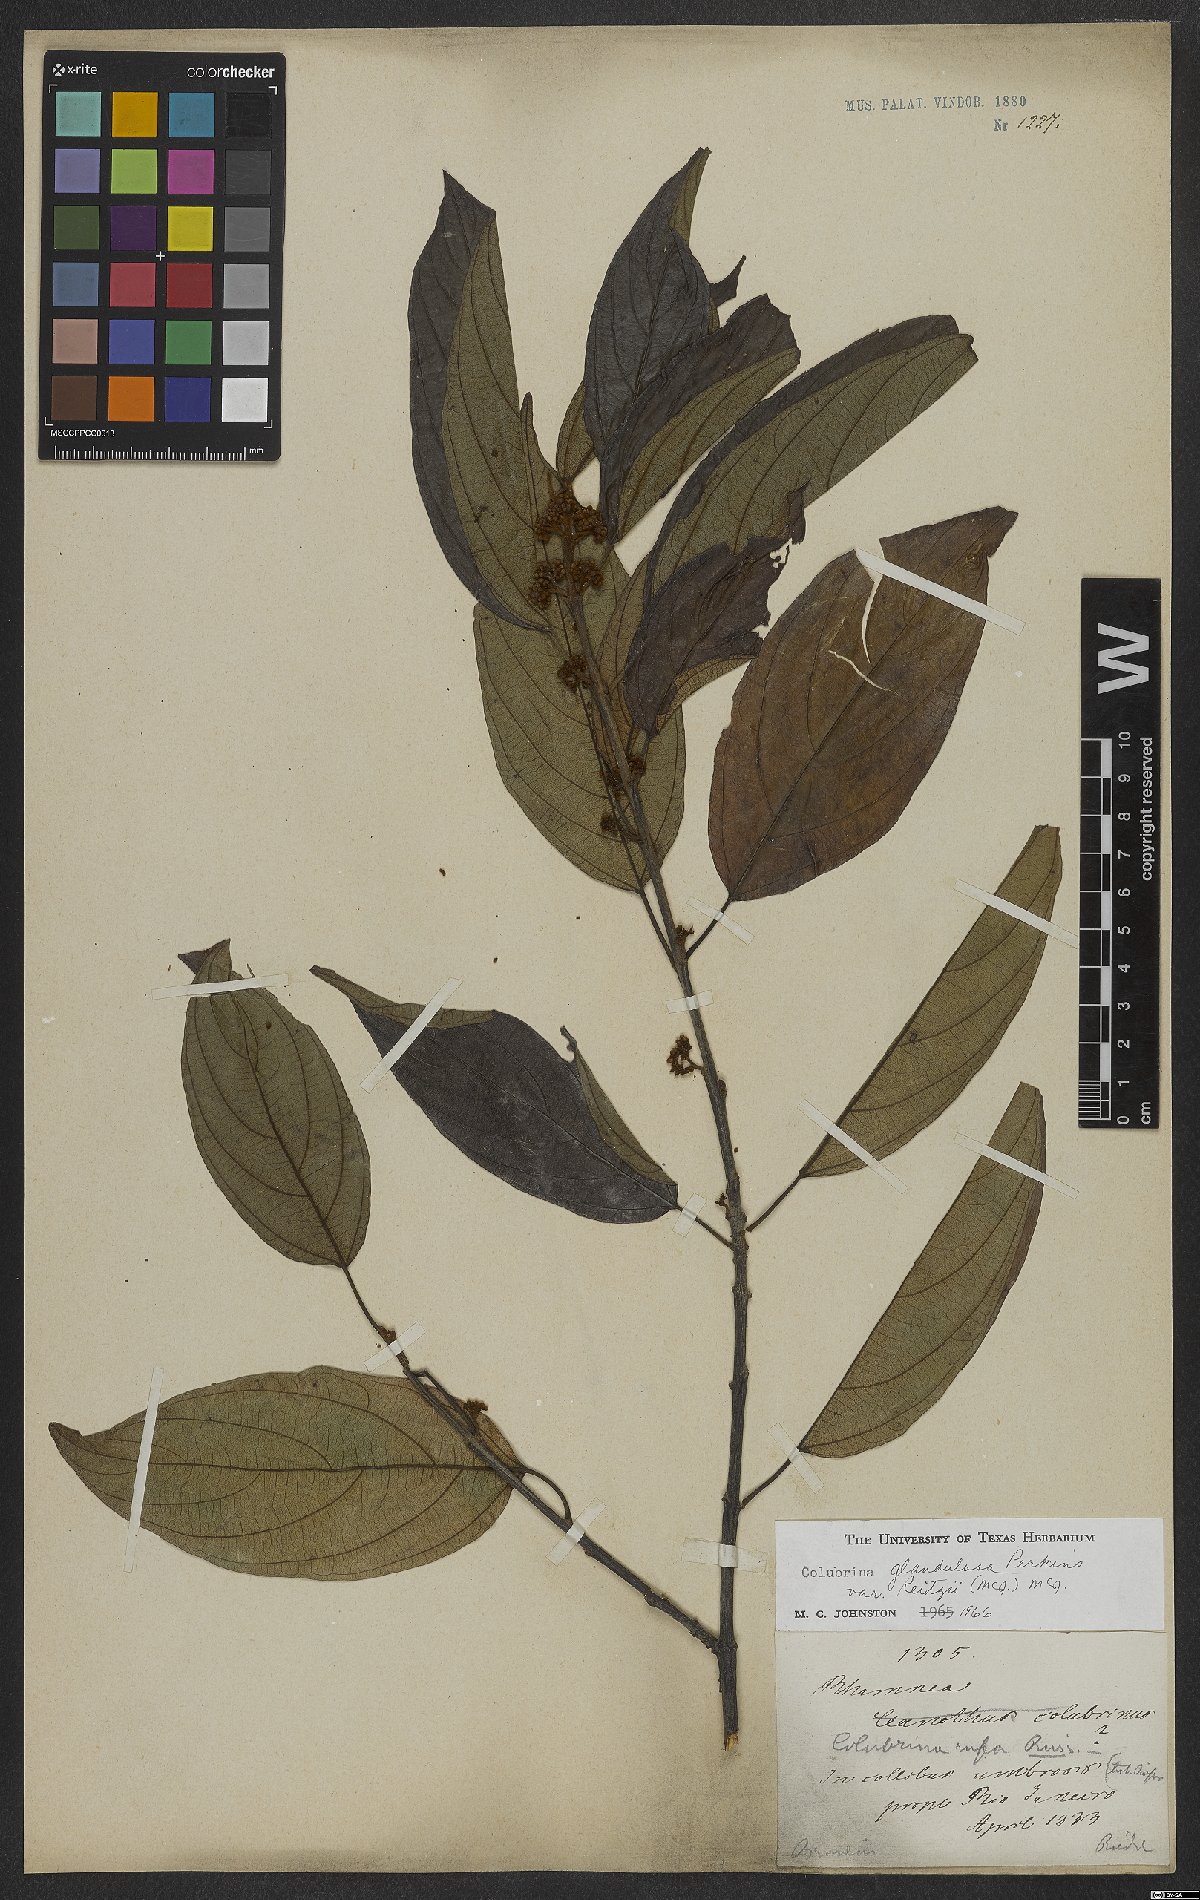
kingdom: Plantae
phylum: Tracheophyta
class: Magnoliopsida
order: Rosales
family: Rhamnaceae
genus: Colubrina
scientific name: Colubrina glandulosa
